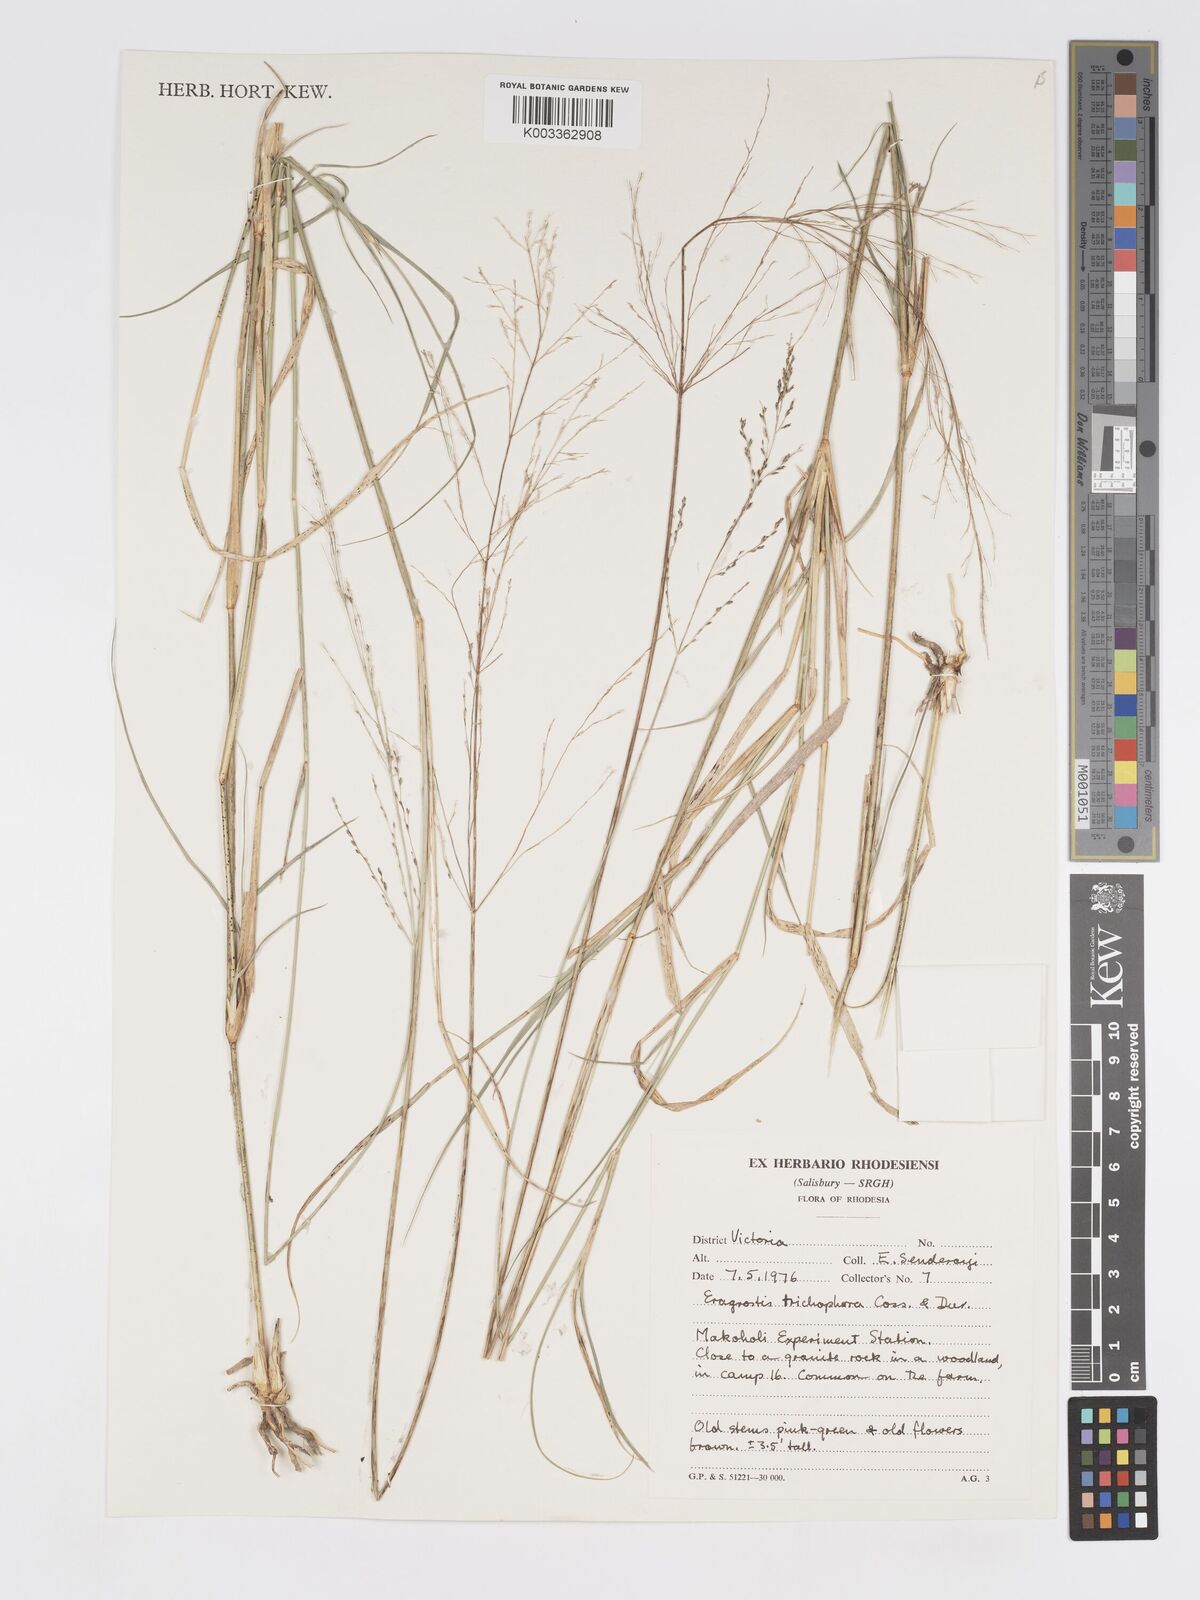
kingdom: Plantae
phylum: Tracheophyta
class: Liliopsida
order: Poales
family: Poaceae
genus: Eragrostis
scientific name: Eragrostis cylindriflora
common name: Cylinderflower lovegrass
